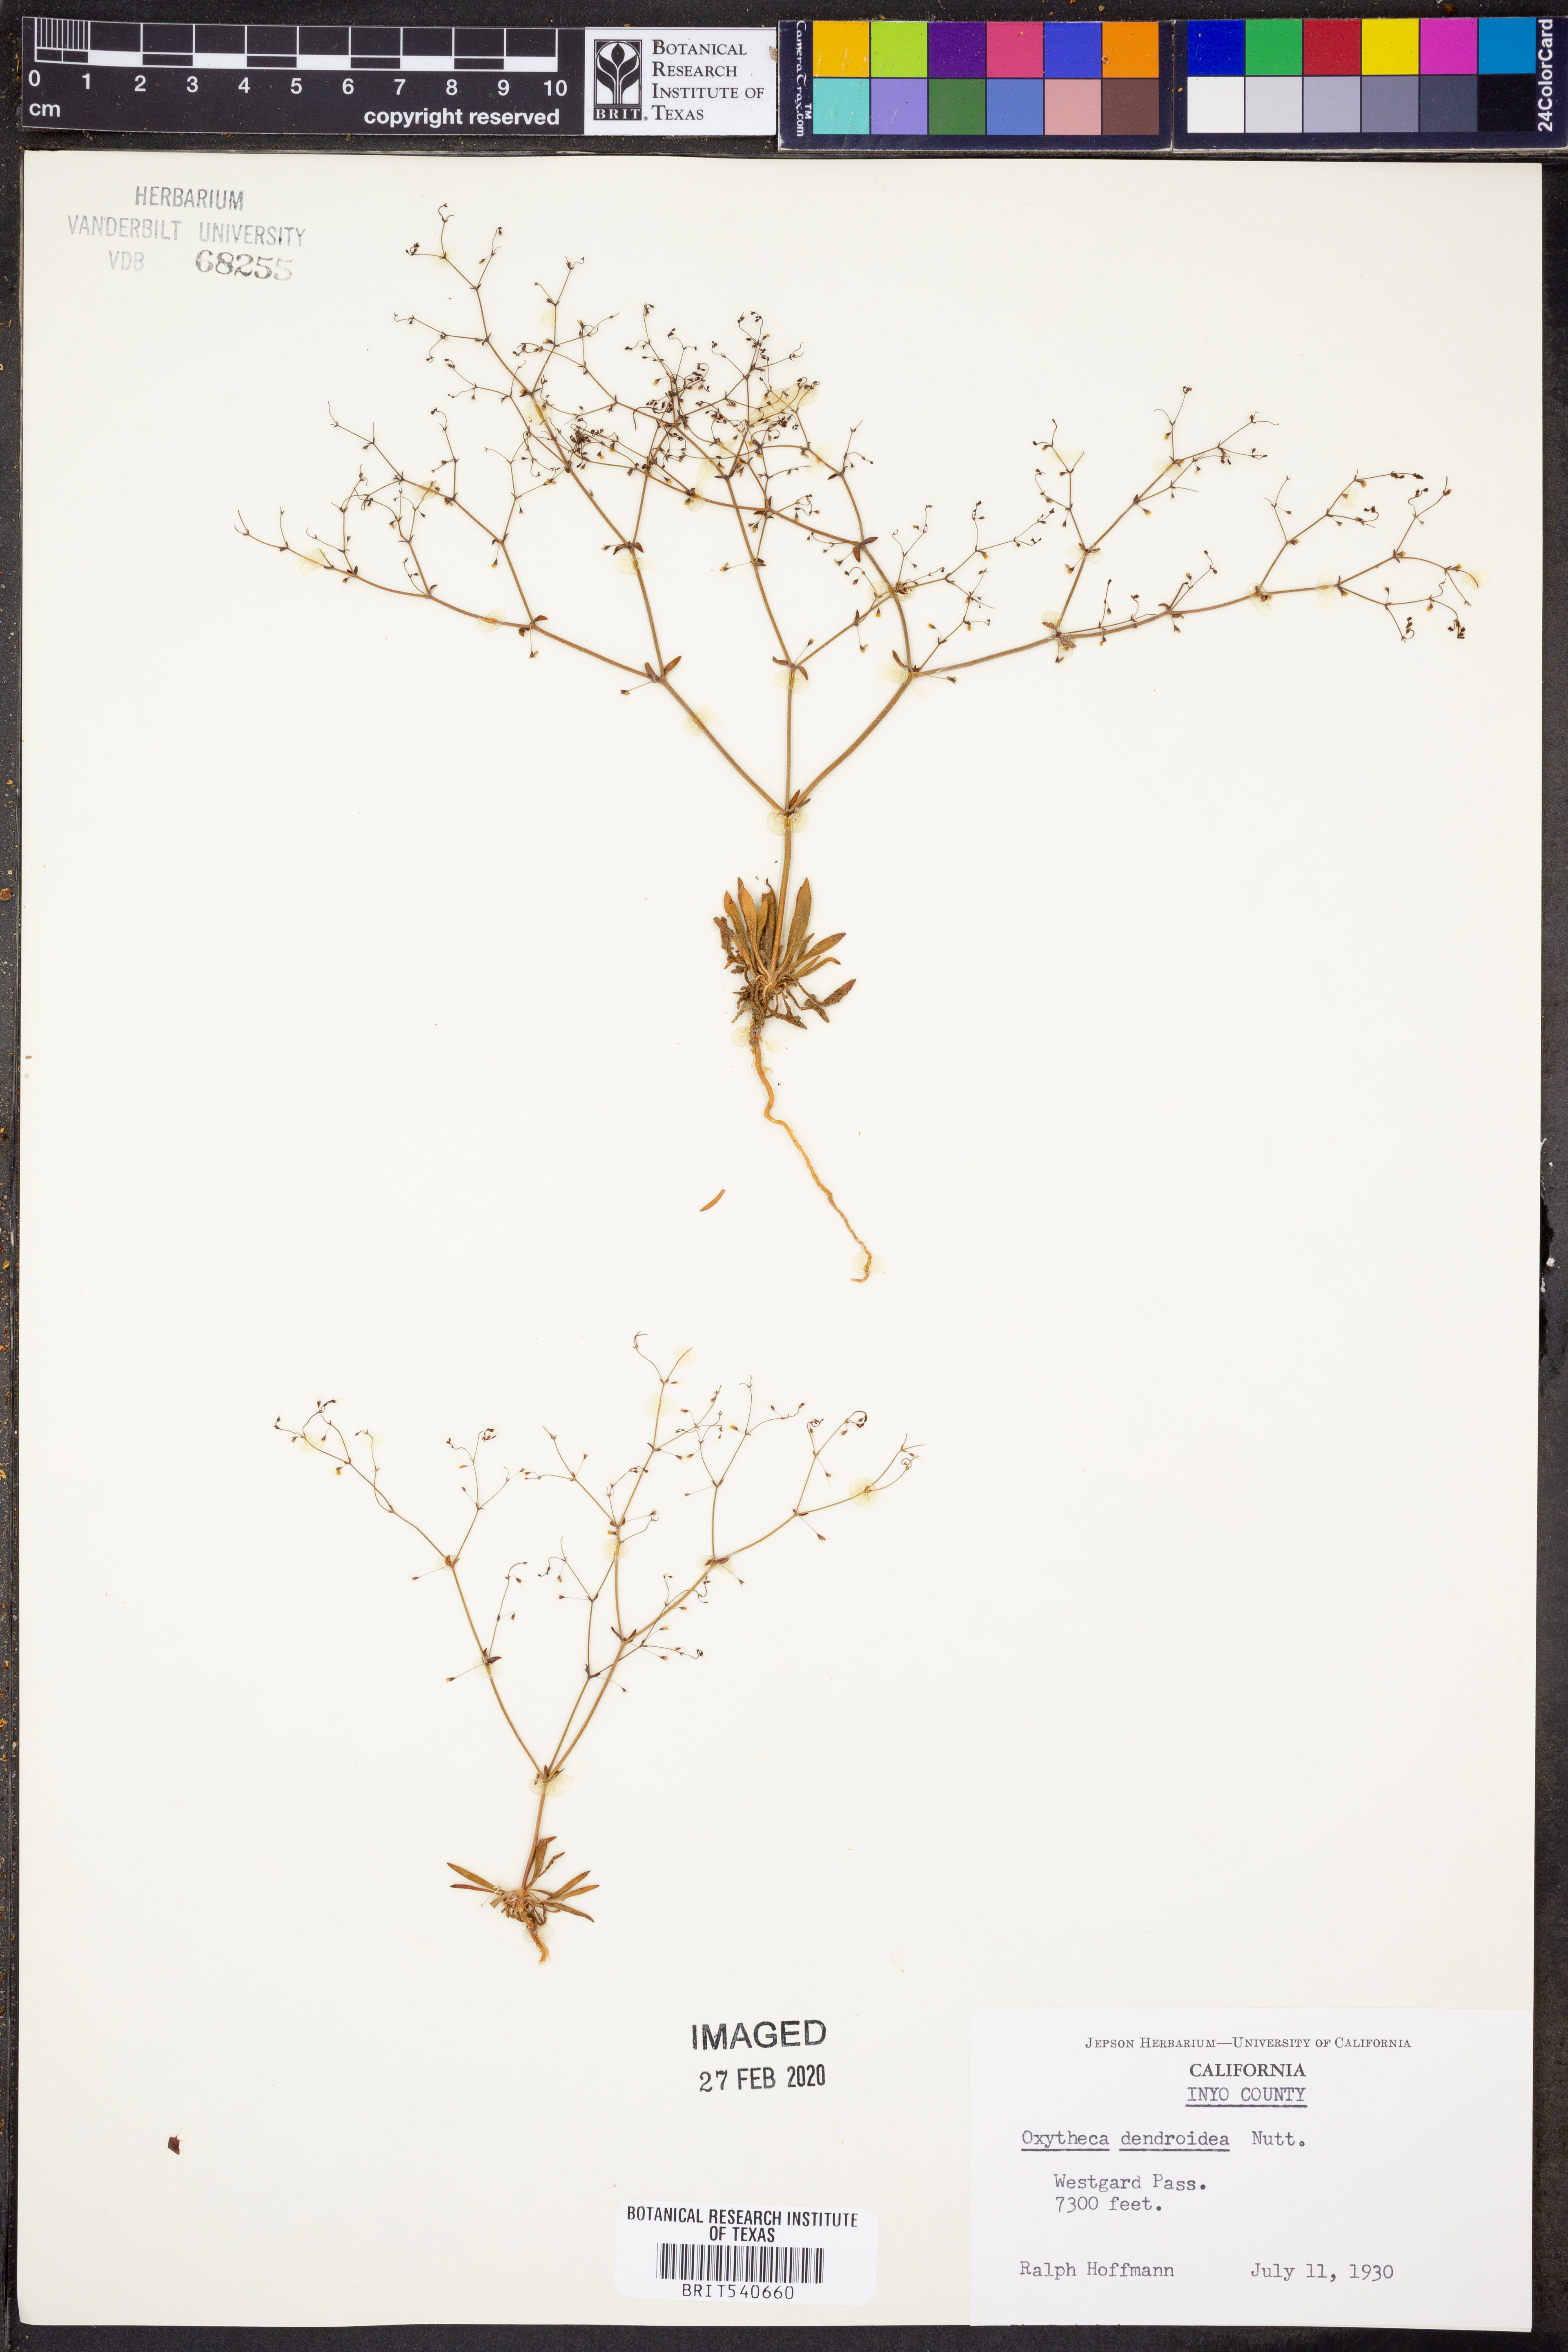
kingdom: Plantae
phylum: Tracheophyta
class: Magnoliopsida
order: Caryophyllales
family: Polygonaceae
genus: Oxytheca
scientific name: Oxytheca dendroidea
